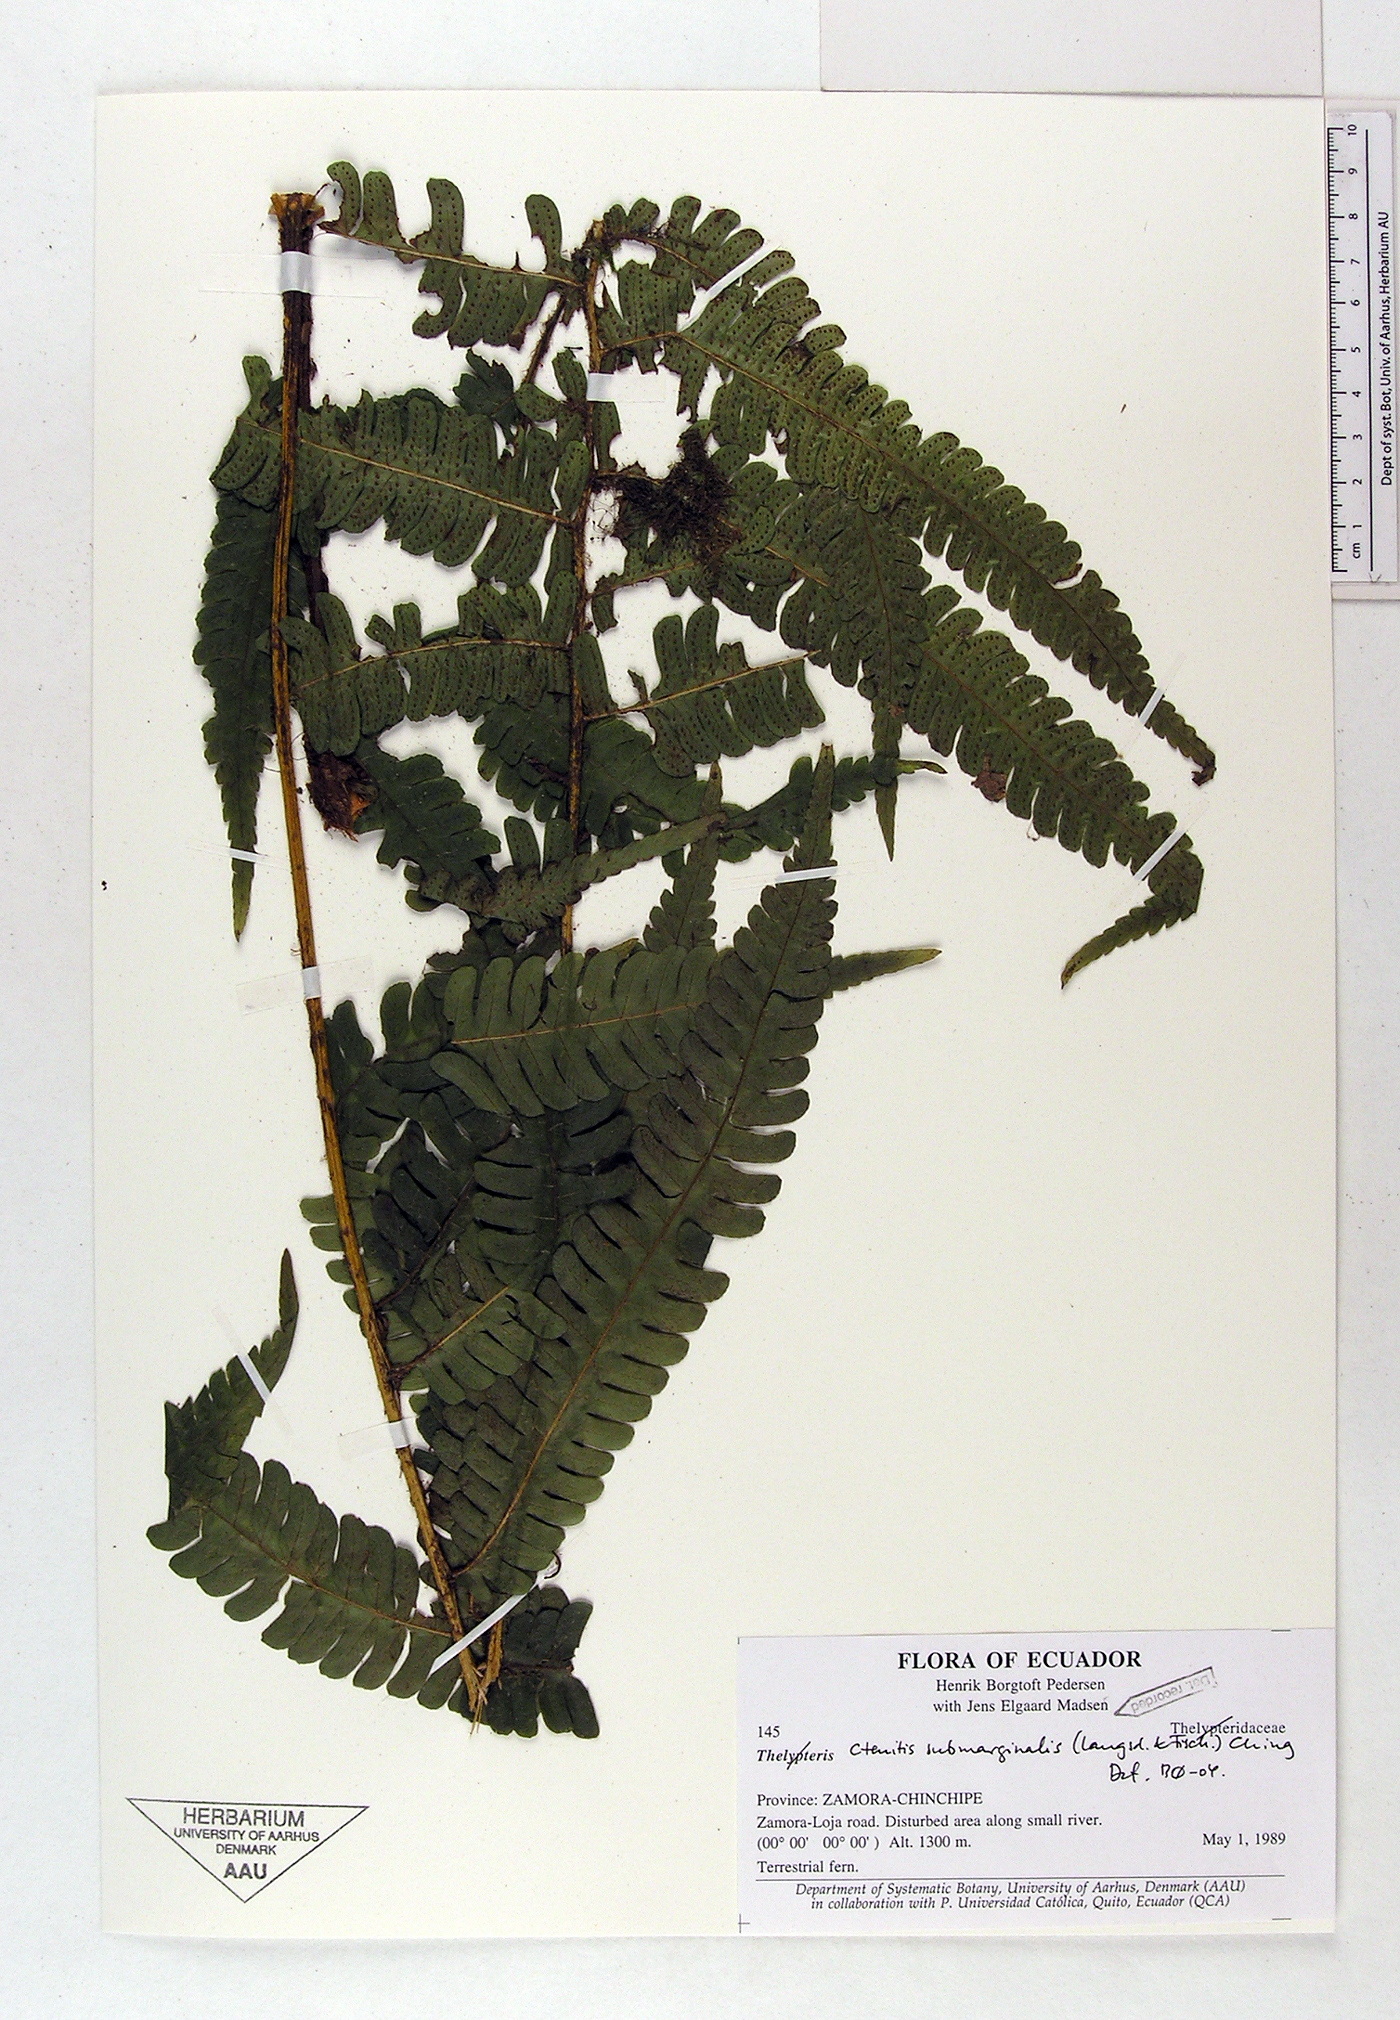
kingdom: Plantae
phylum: Tracheophyta
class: Polypodiopsida
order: Polypodiales
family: Dryopteridaceae
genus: Ctenitis
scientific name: Ctenitis submarginalis
